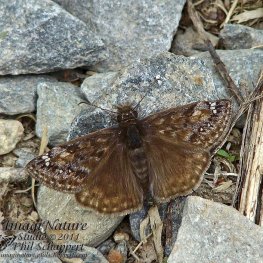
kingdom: Animalia
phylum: Arthropoda
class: Insecta
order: Lepidoptera
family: Hesperiidae
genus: Gesta
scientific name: Gesta
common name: Juvenal's Duskywing
